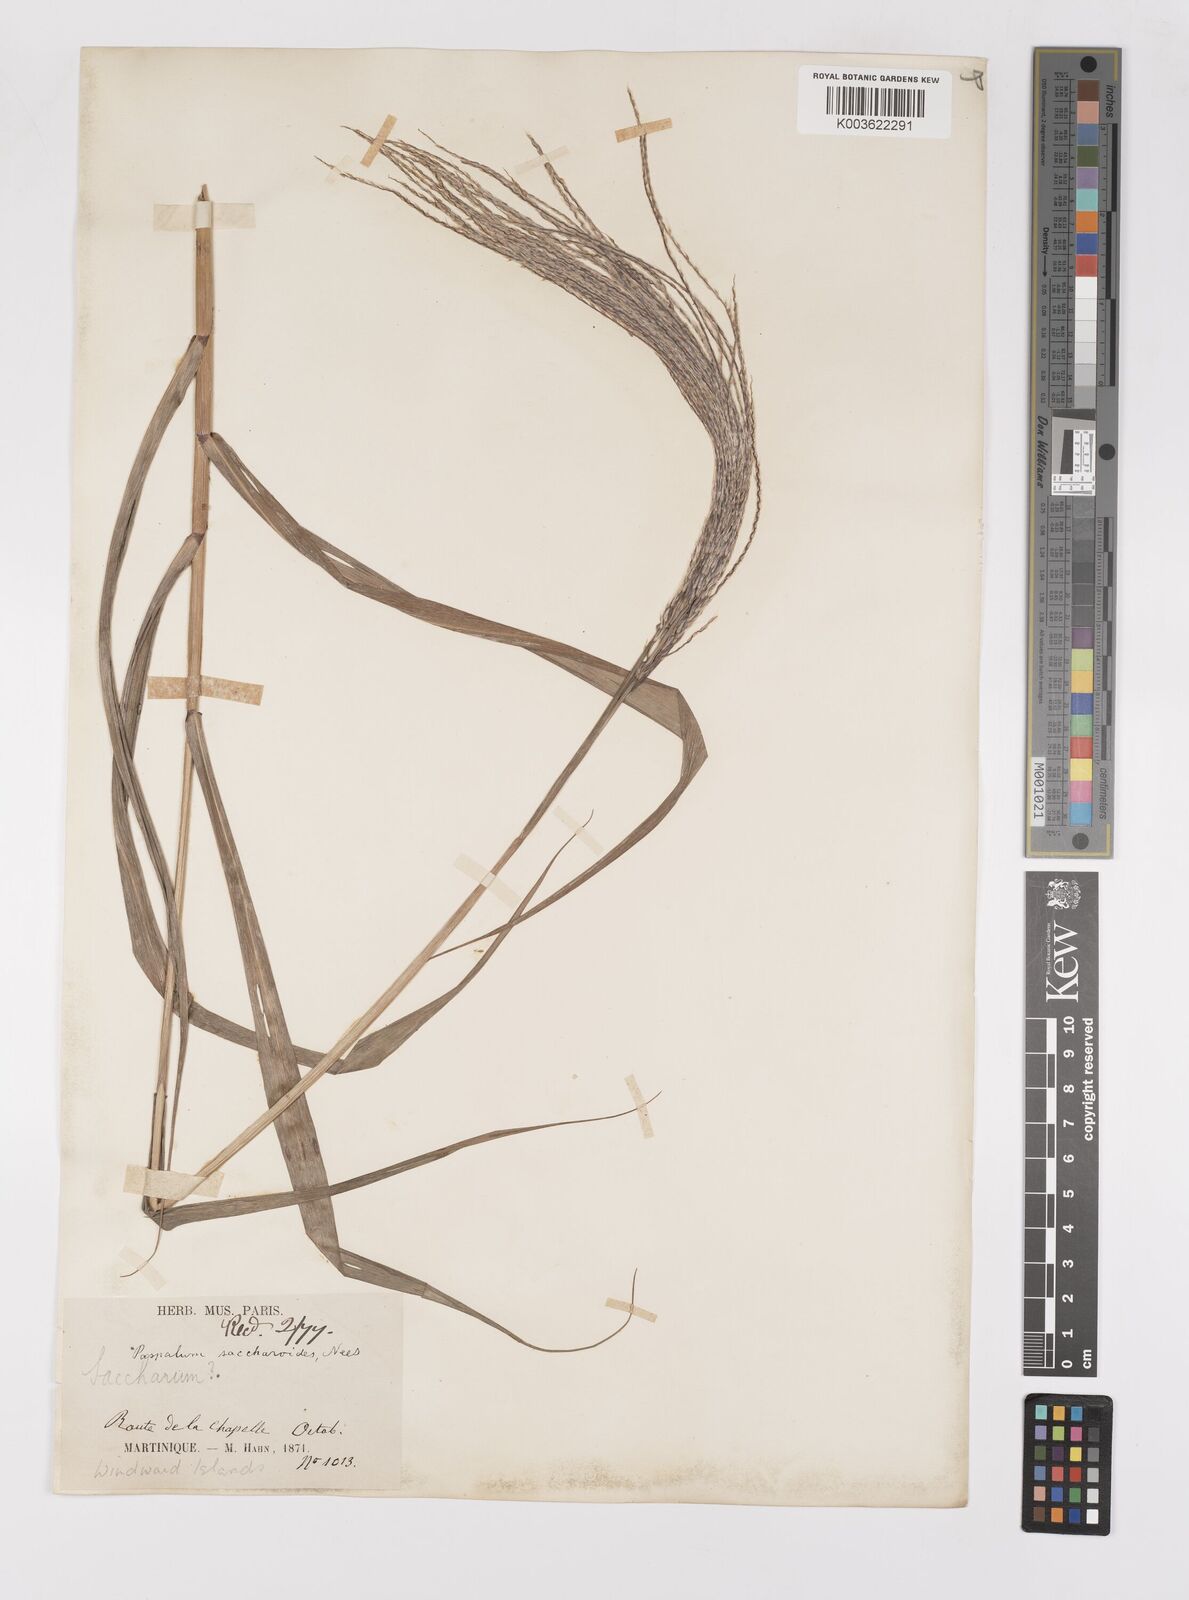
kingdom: Plantae
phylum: Tracheophyta
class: Liliopsida
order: Poales
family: Poaceae
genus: Paspalum
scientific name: Paspalum saccharoides
